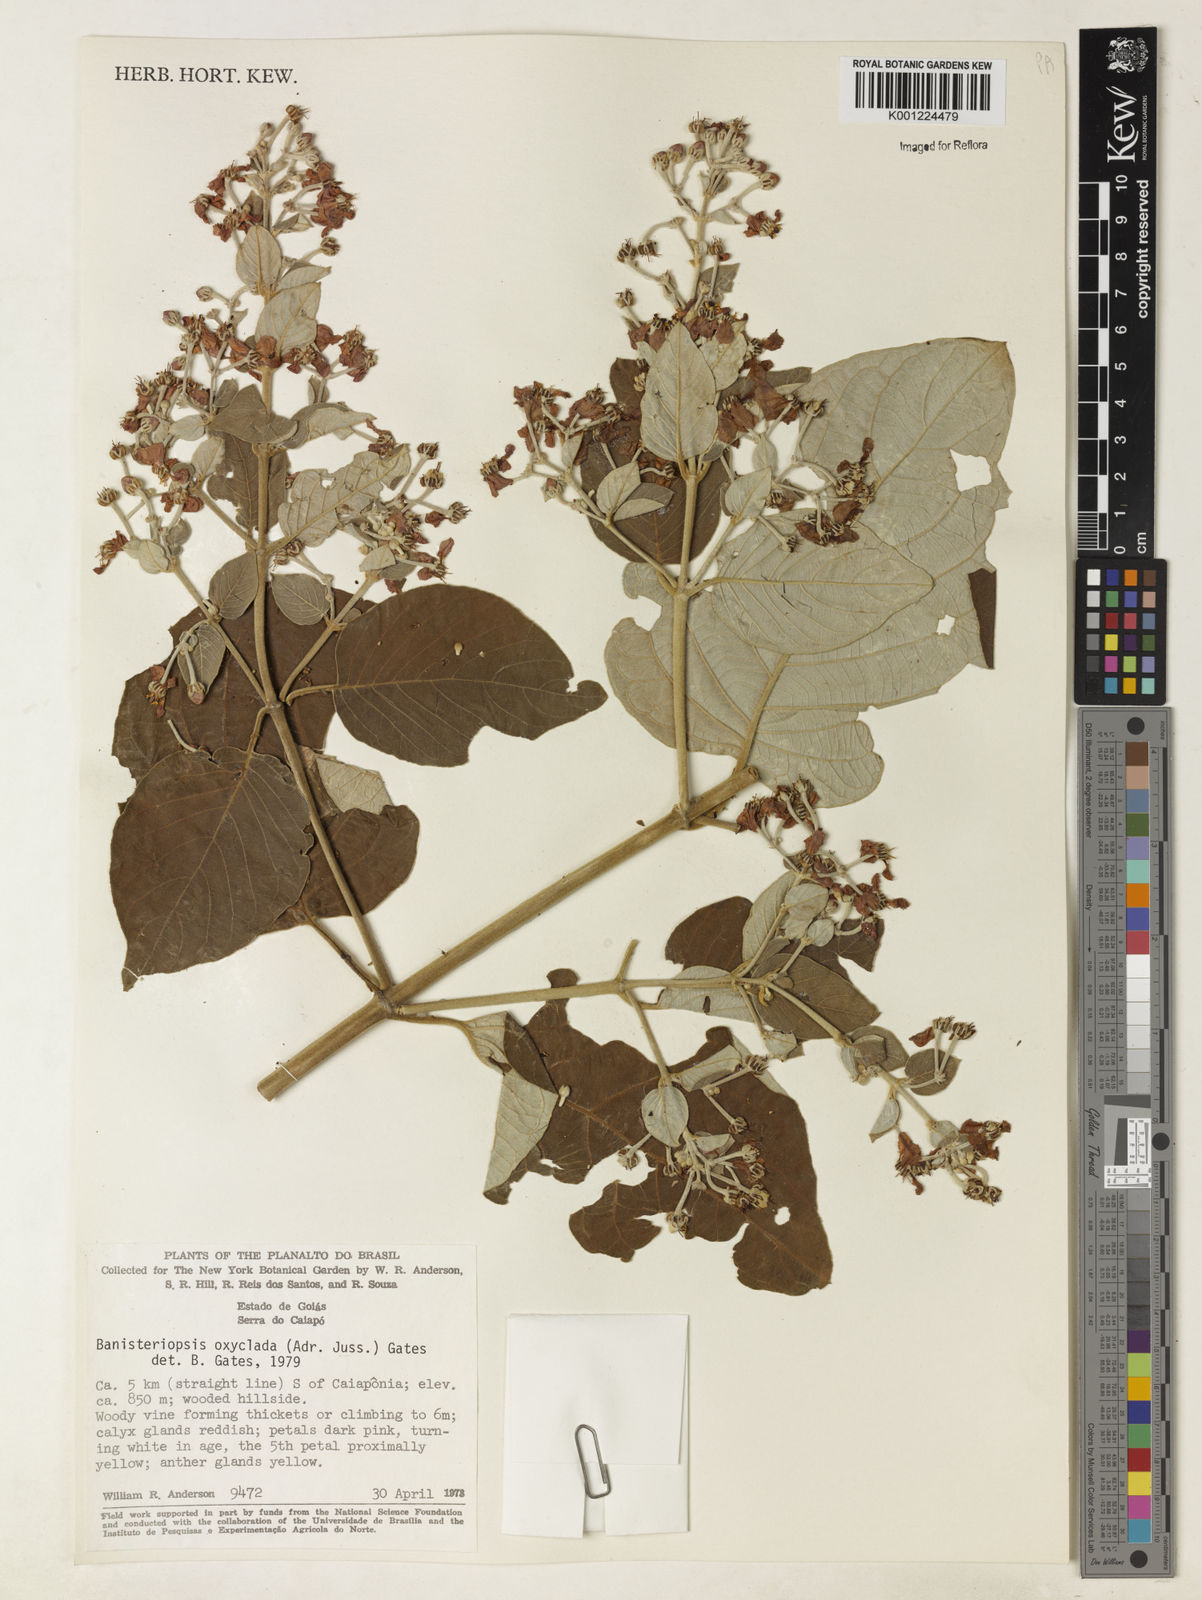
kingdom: Plantae
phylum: Tracheophyta
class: Magnoliopsida
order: Malpighiales
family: Malpighiaceae
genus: Banisteriopsis
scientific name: Banisteriopsis oxyclada
